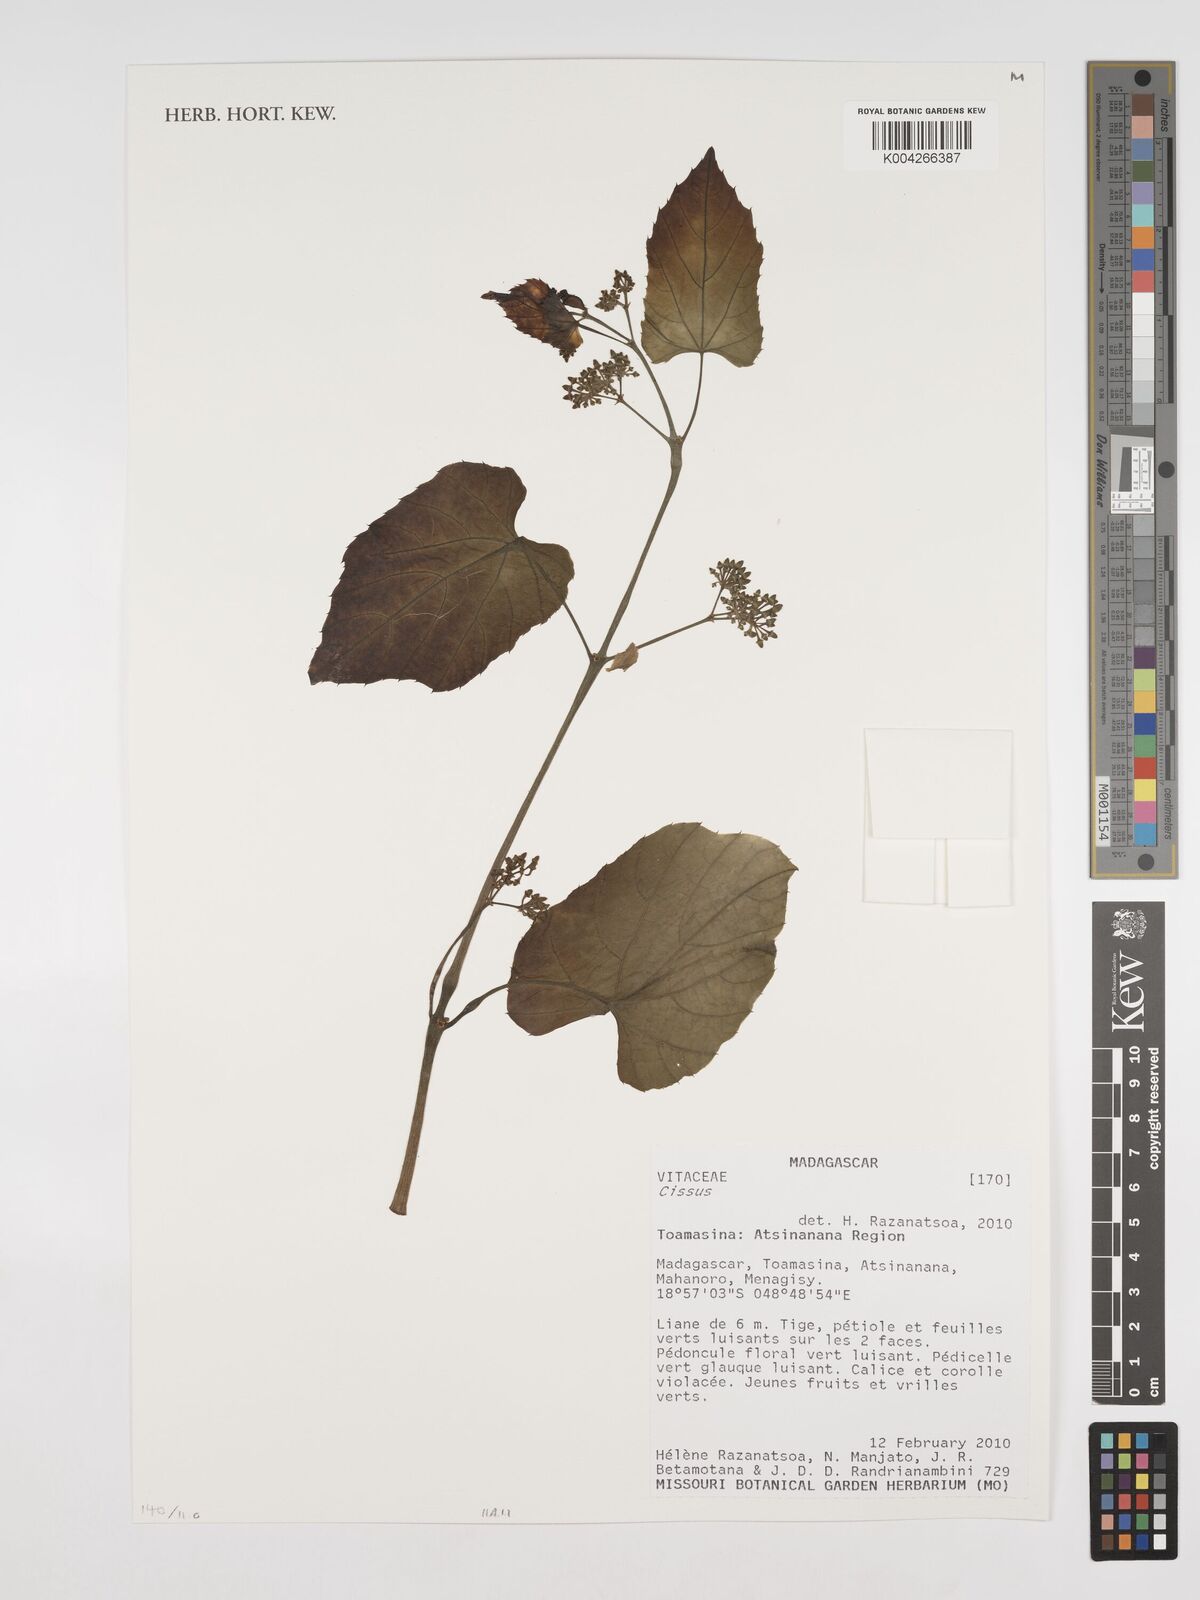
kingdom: Plantae
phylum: Tracheophyta
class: Magnoliopsida
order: Vitales
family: Vitaceae
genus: Cissus
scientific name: Cissus
